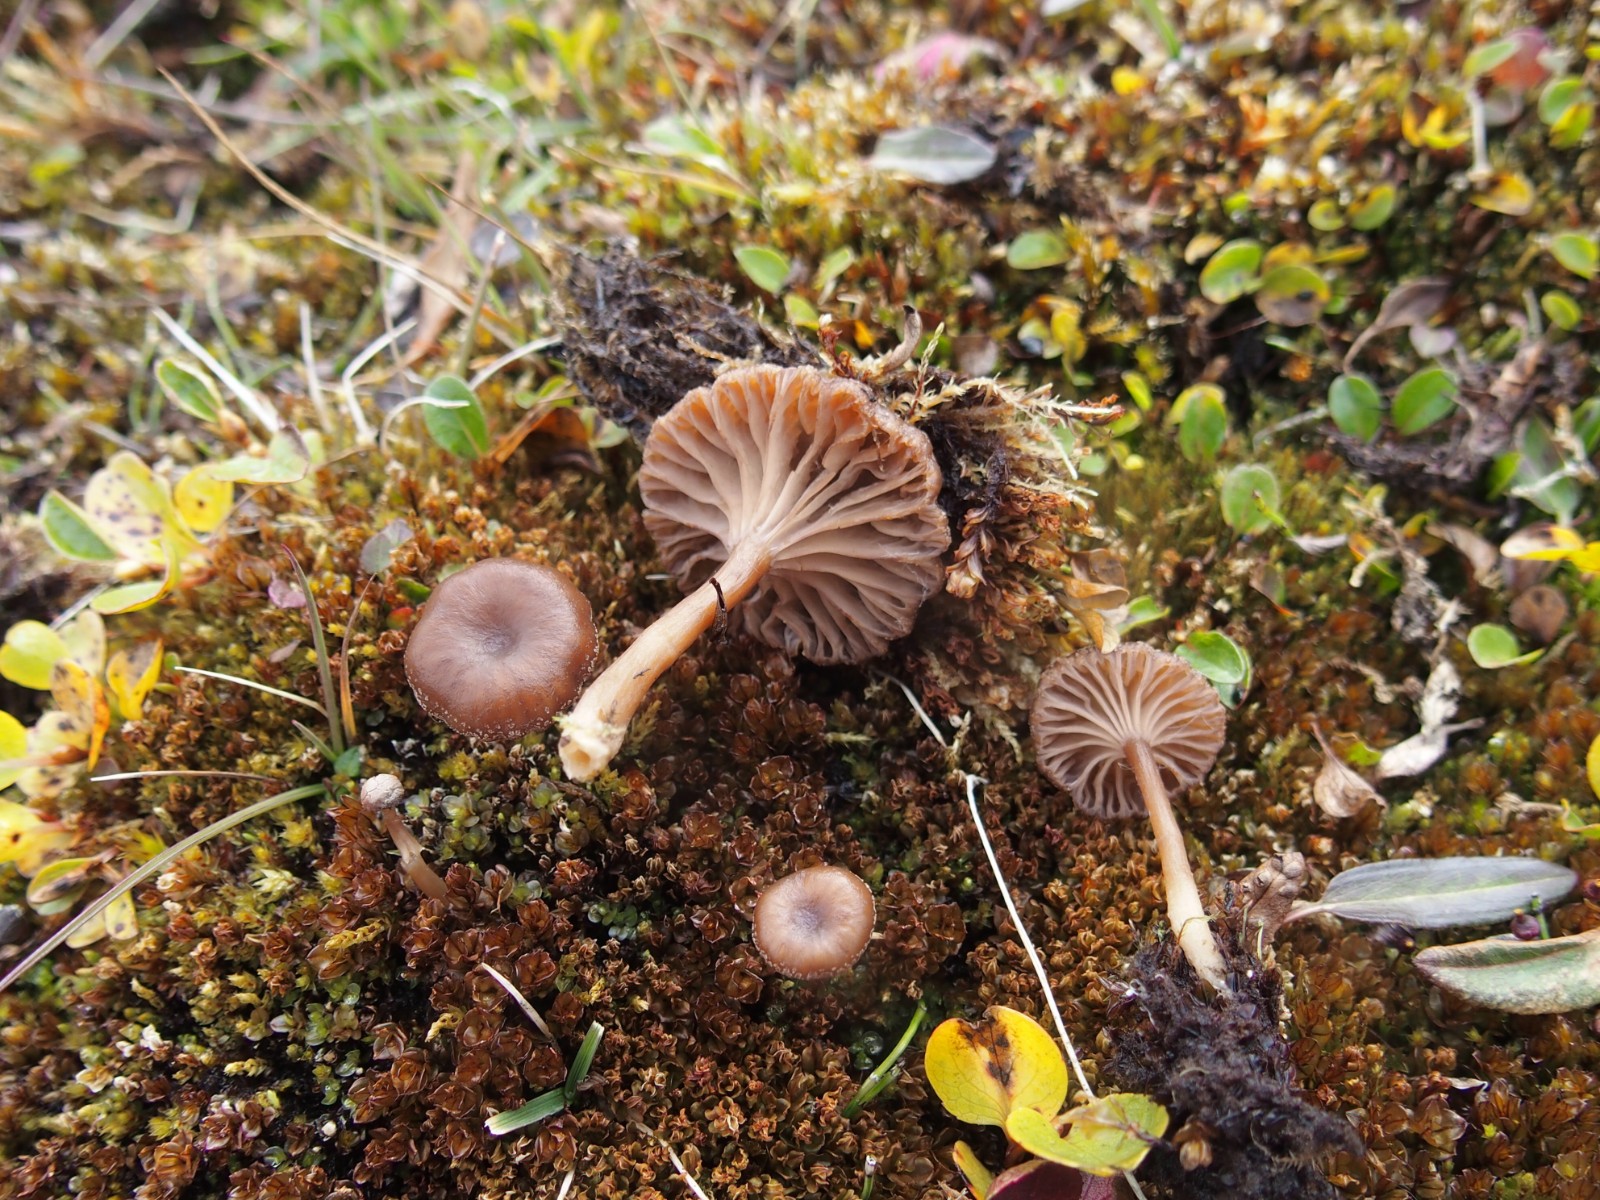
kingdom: Fungi
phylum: Basidiomycota
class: Agaricomycetes
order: Agaricales
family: Tricholomataceae
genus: Omphalina
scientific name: Omphalina
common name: navlehat
